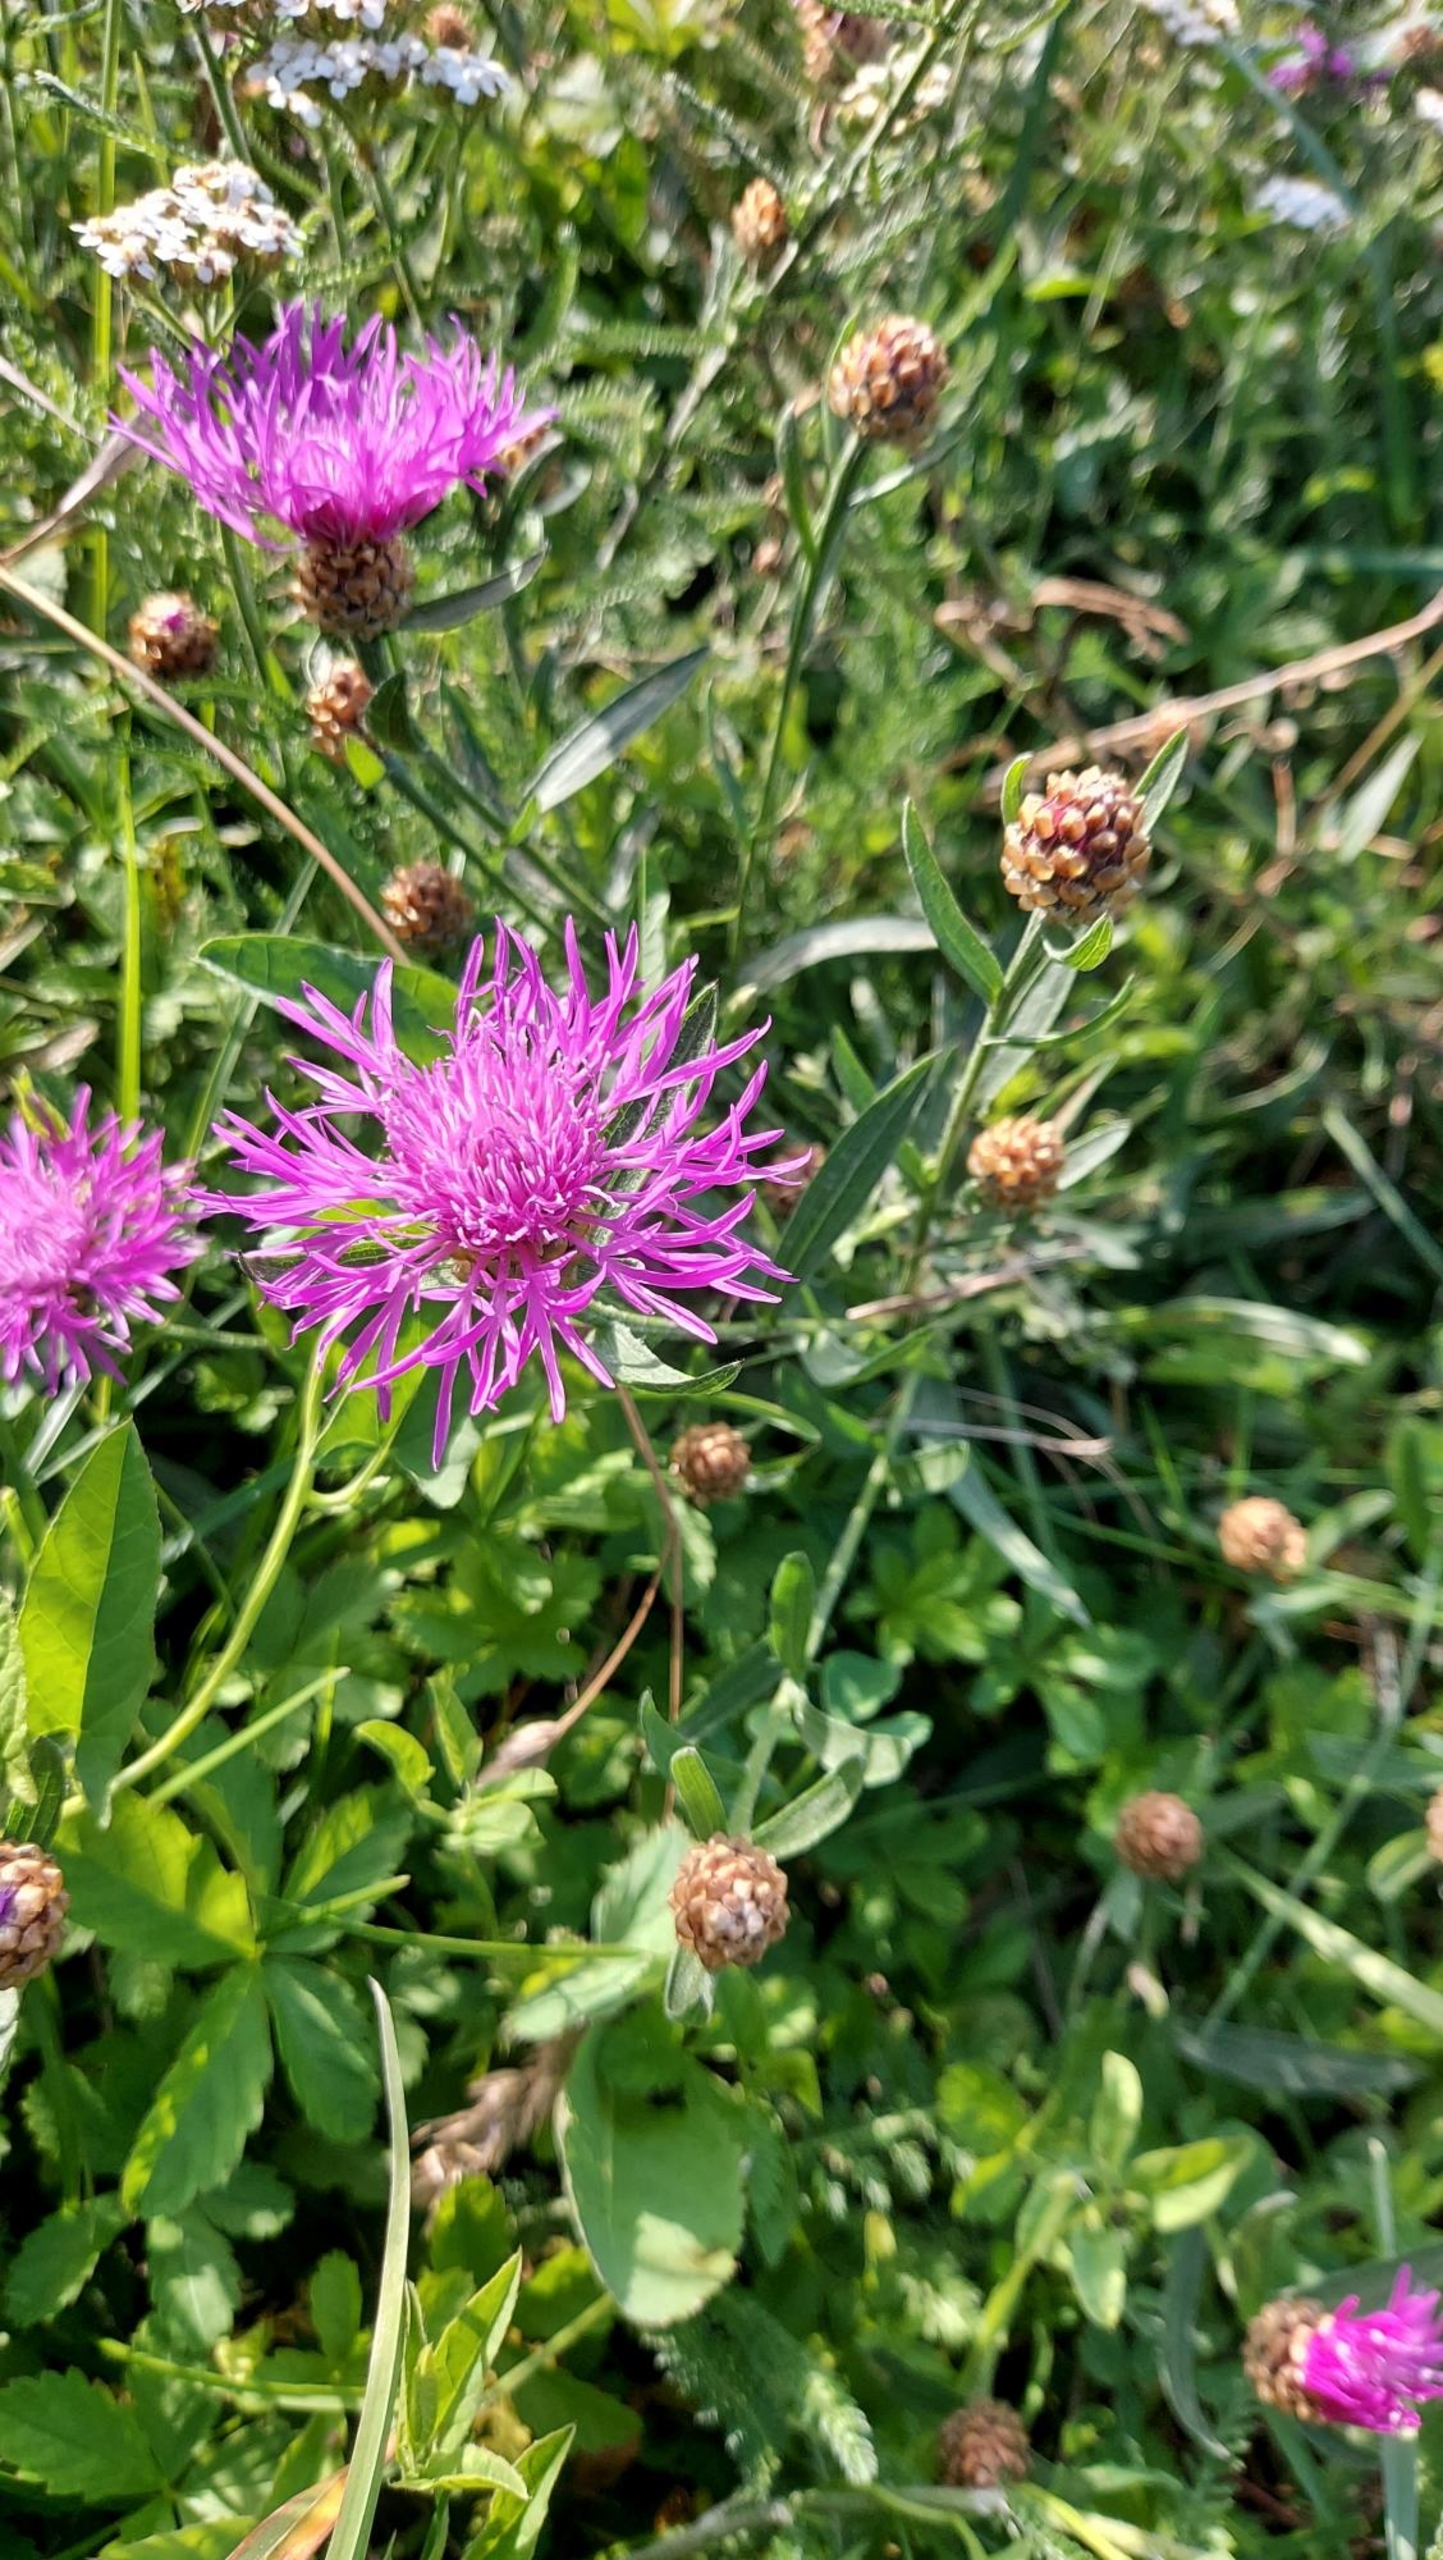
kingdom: Plantae
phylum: Tracheophyta
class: Magnoliopsida
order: Asterales
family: Asteraceae
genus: Centaurea
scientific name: Centaurea jacea
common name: Almindelig knopurt
